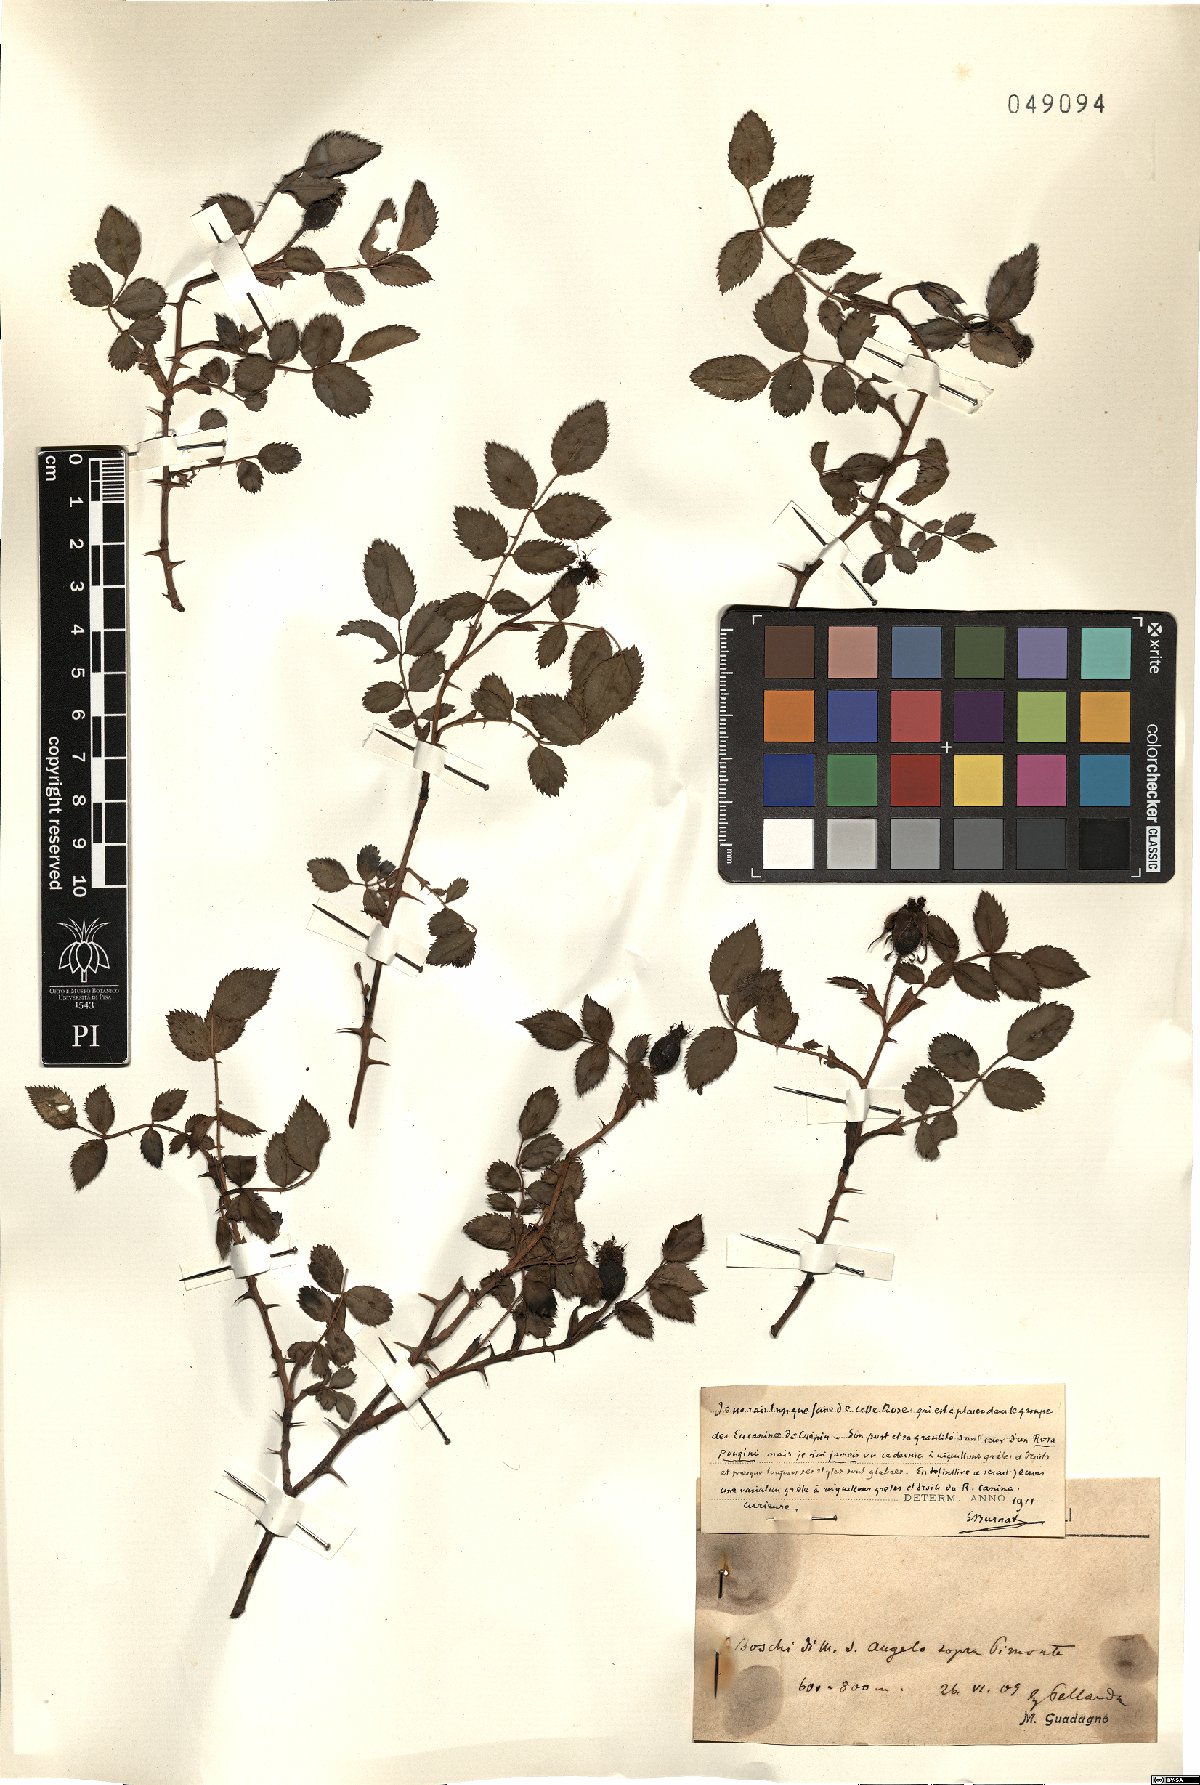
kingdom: Plantae
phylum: Tracheophyta
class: Magnoliopsida
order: Rosales
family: Rosaceae
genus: Rosa
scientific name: Rosa canina
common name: Dog rose
